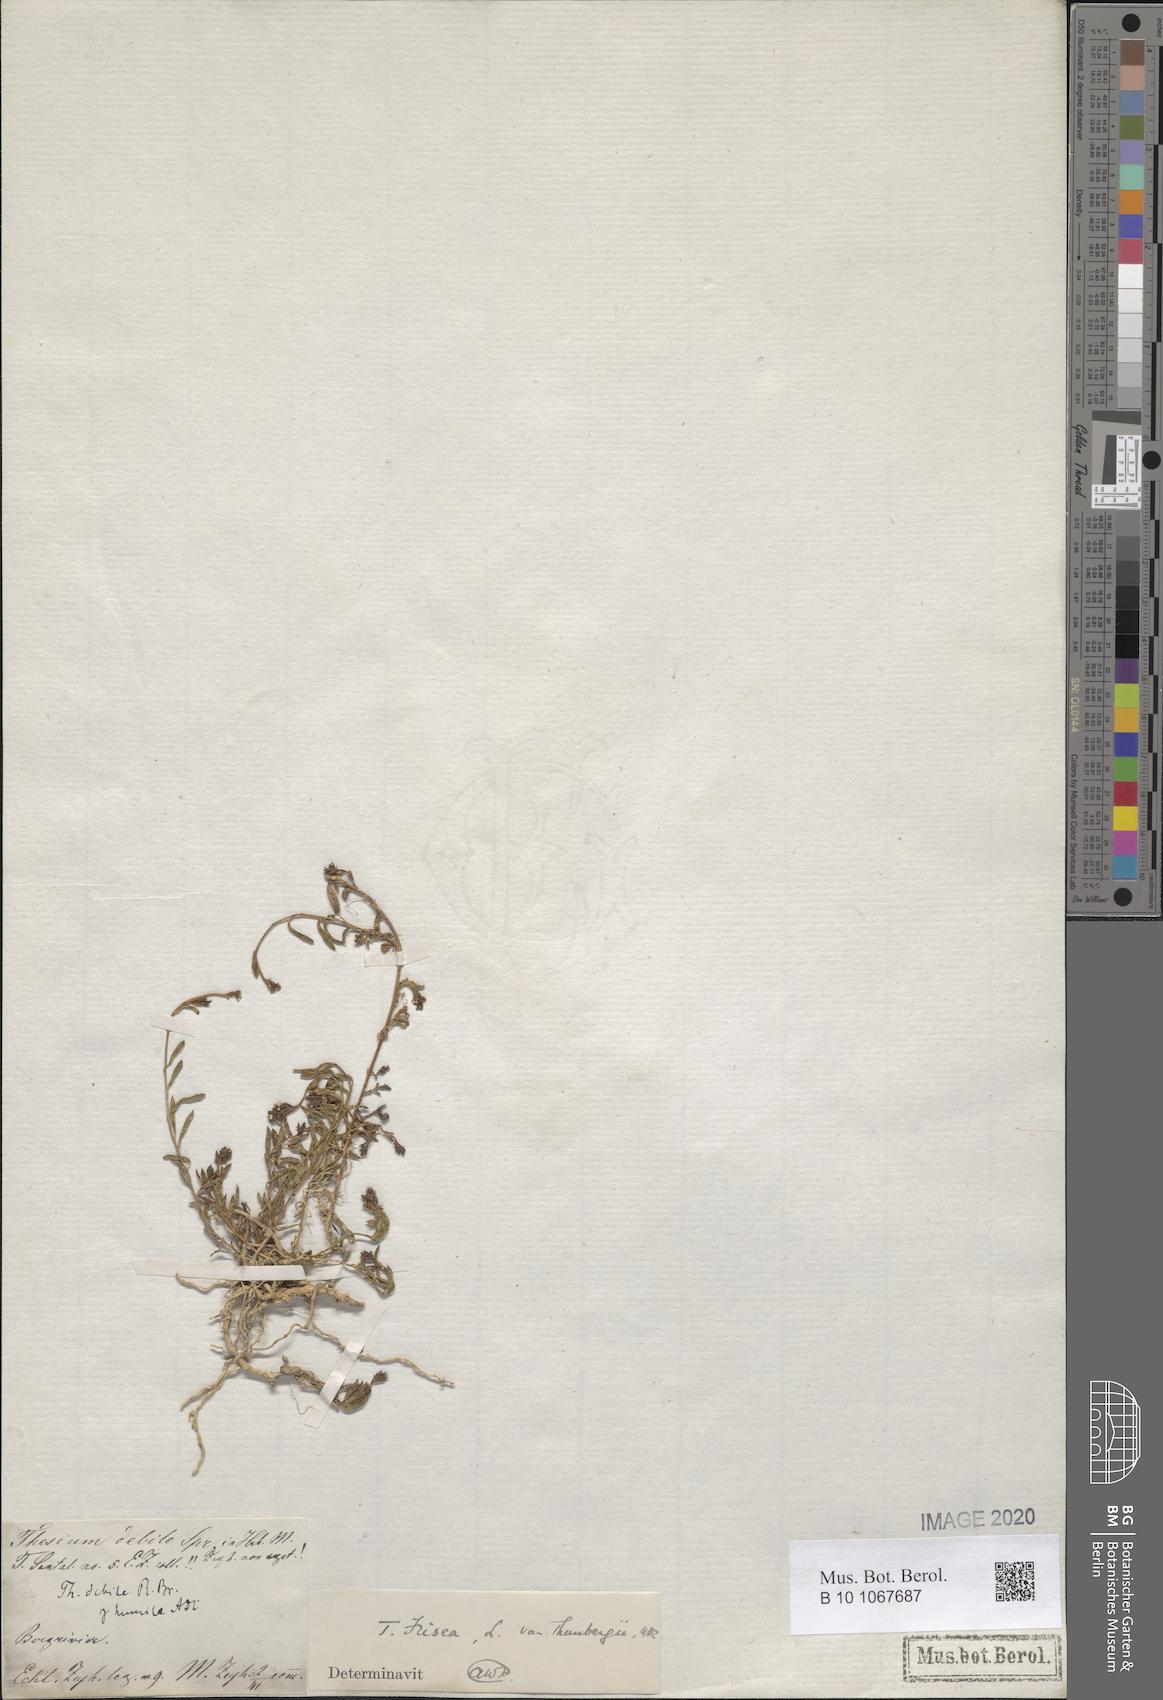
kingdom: Plantae
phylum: Tracheophyta
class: Magnoliopsida
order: Santalales
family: Thesiaceae
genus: Thesium
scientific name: Thesium frisea
